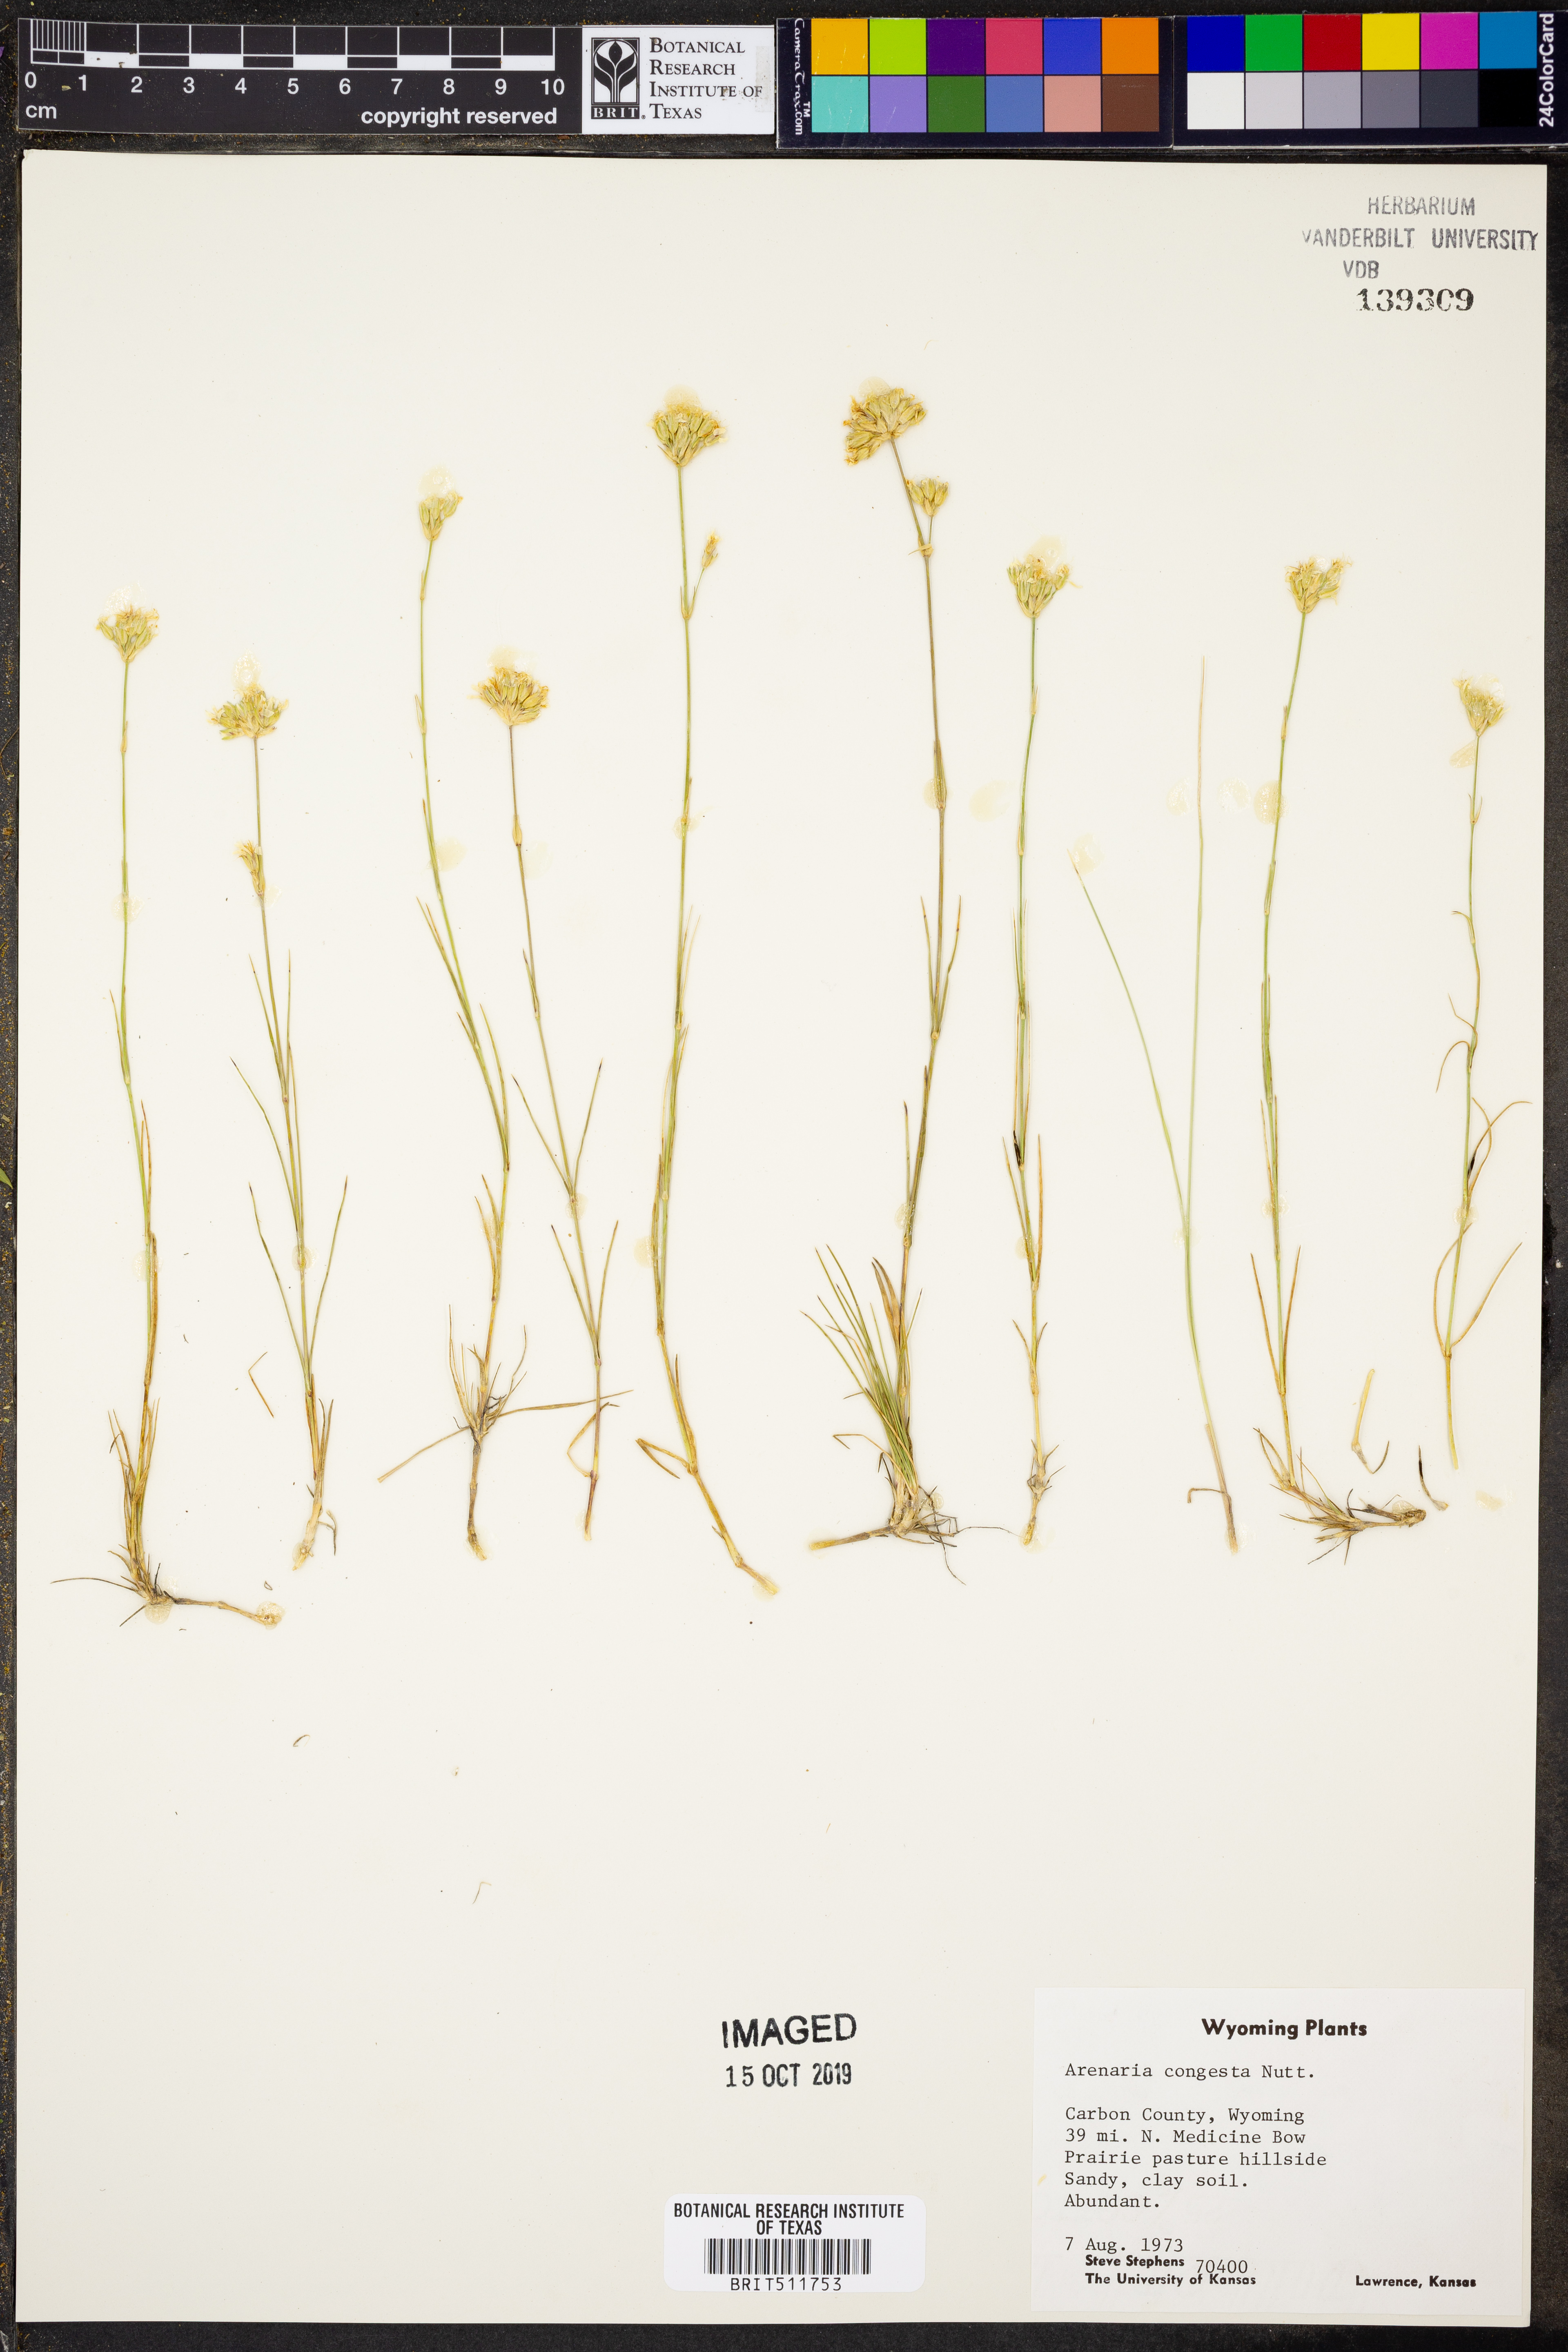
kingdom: Plantae
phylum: Tracheophyta
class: Magnoliopsida
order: Caryophyllales
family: Caryophyllaceae
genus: Eremogone
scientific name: Eremogone congesta
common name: Ballhead sandwort
